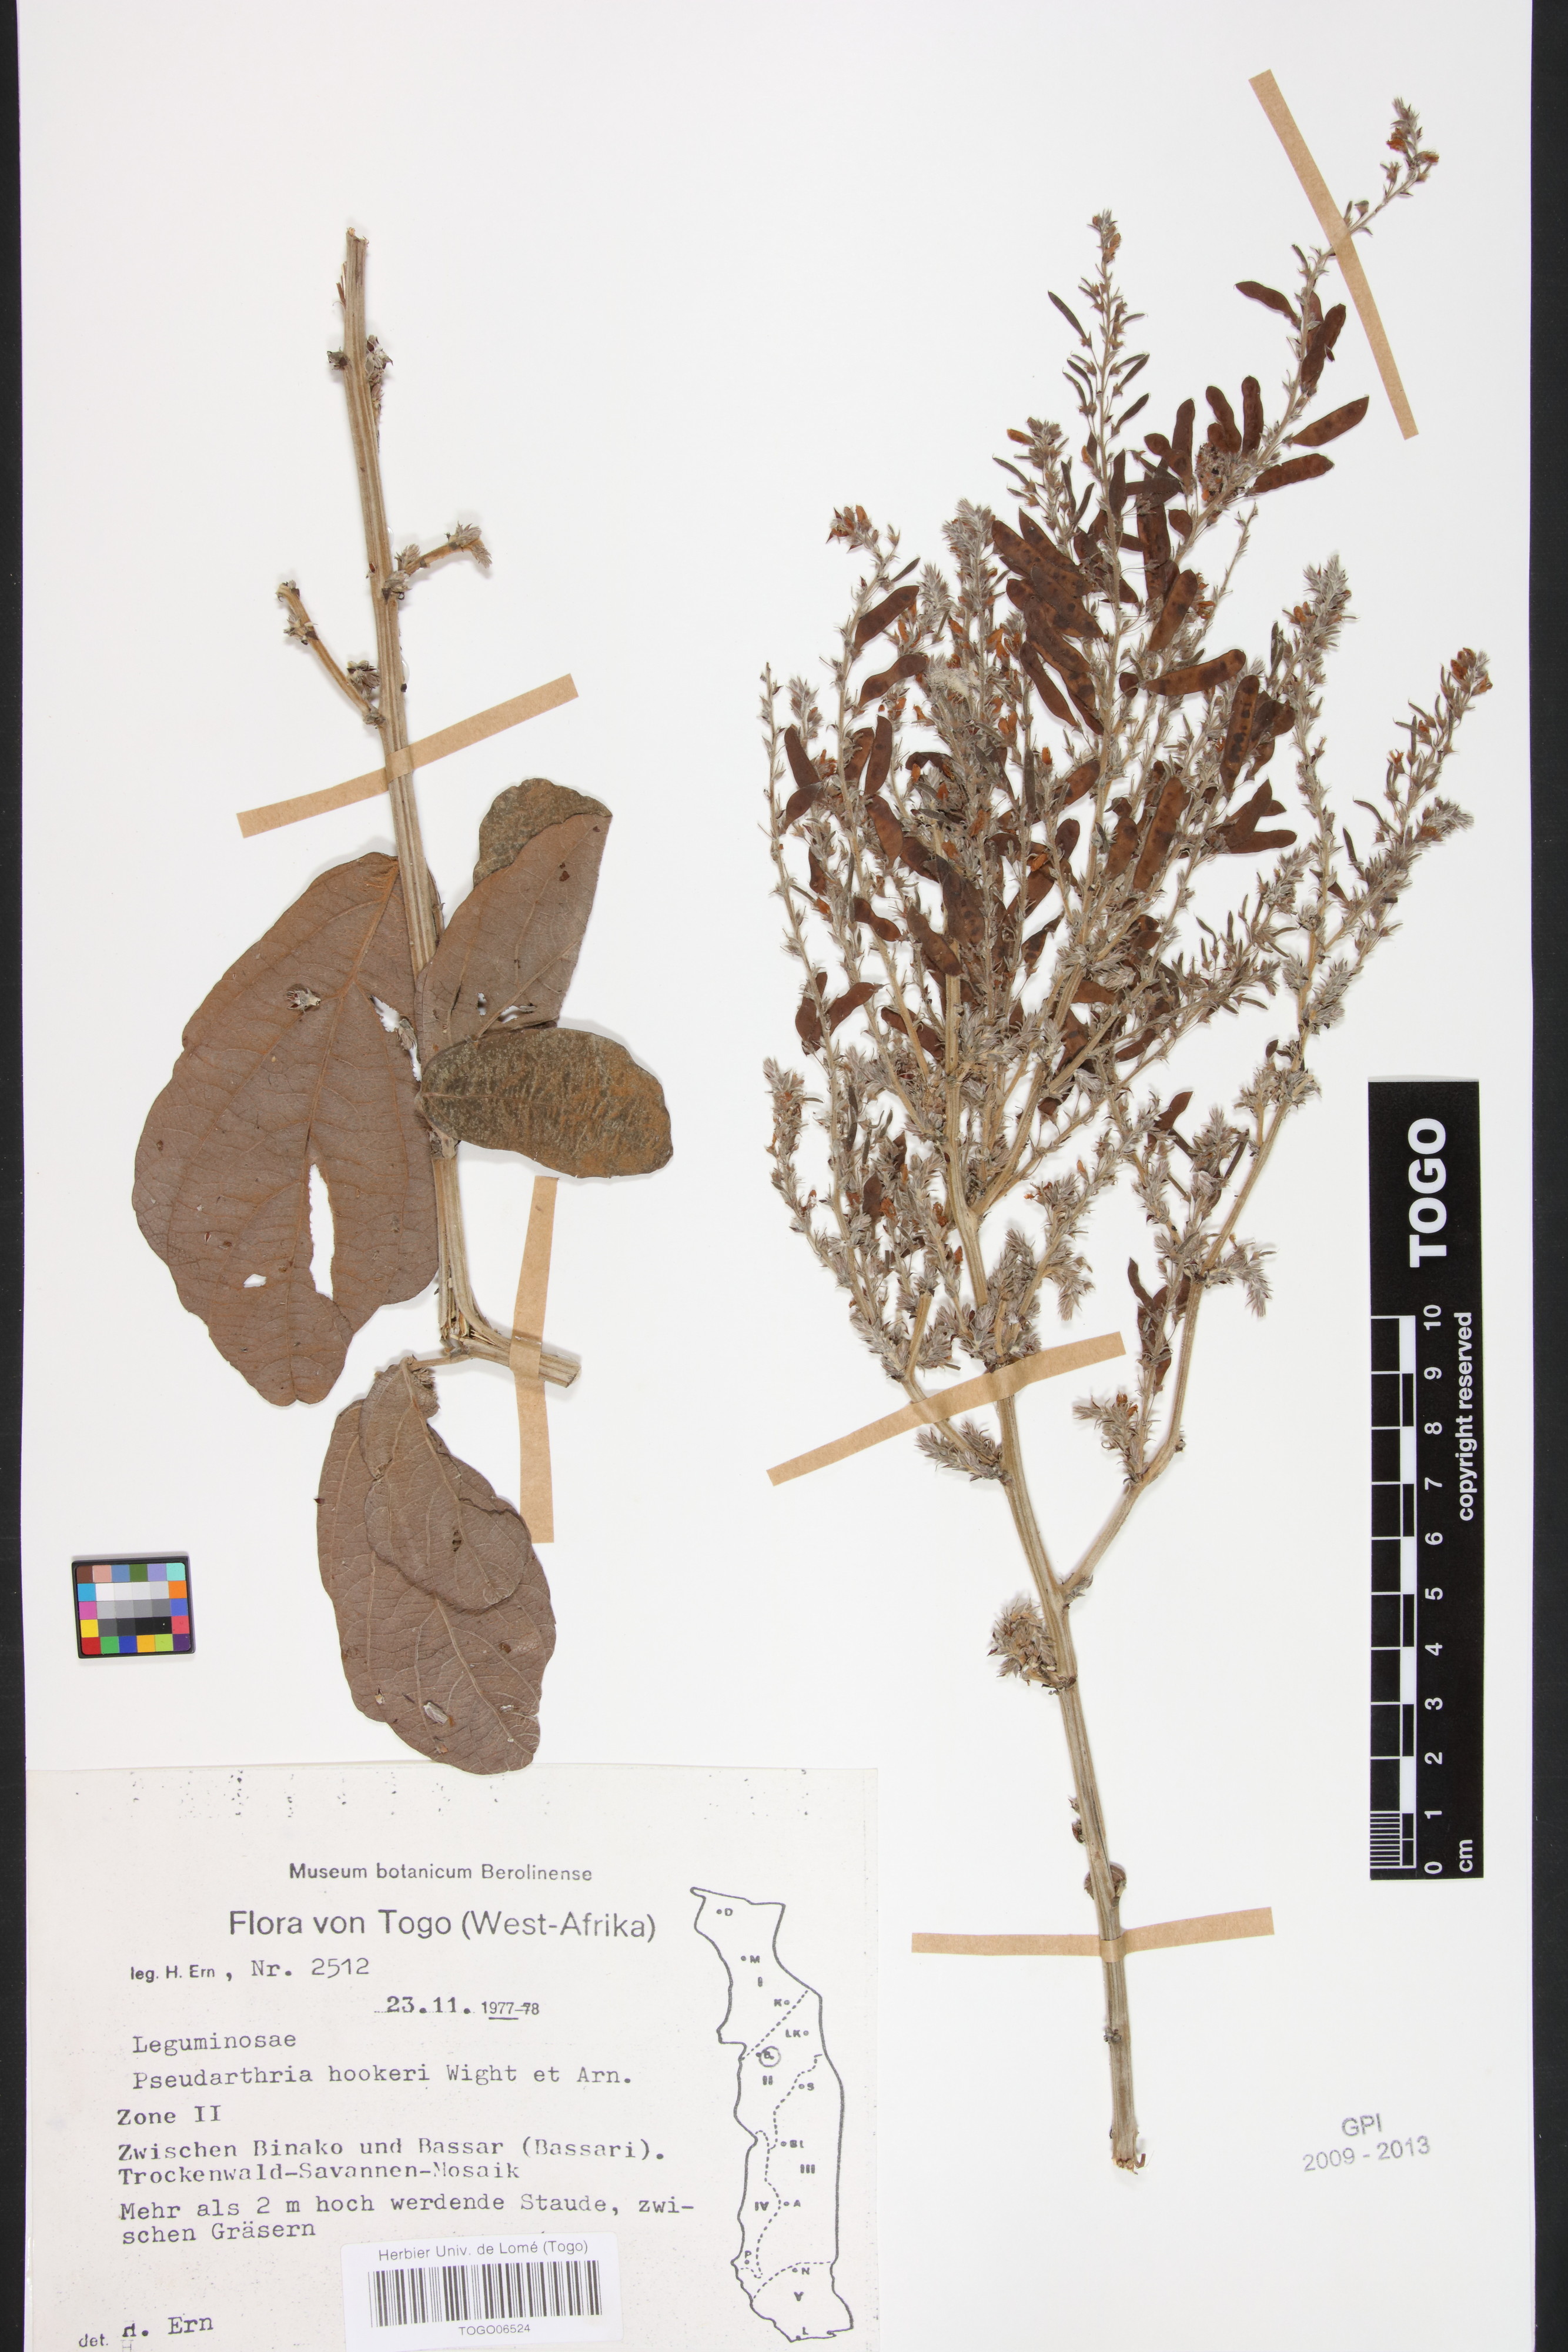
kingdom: Plantae
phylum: Tracheophyta
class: Magnoliopsida
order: Fabales
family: Fabaceae
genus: Pseudarthria
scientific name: Pseudarthria hookeri
